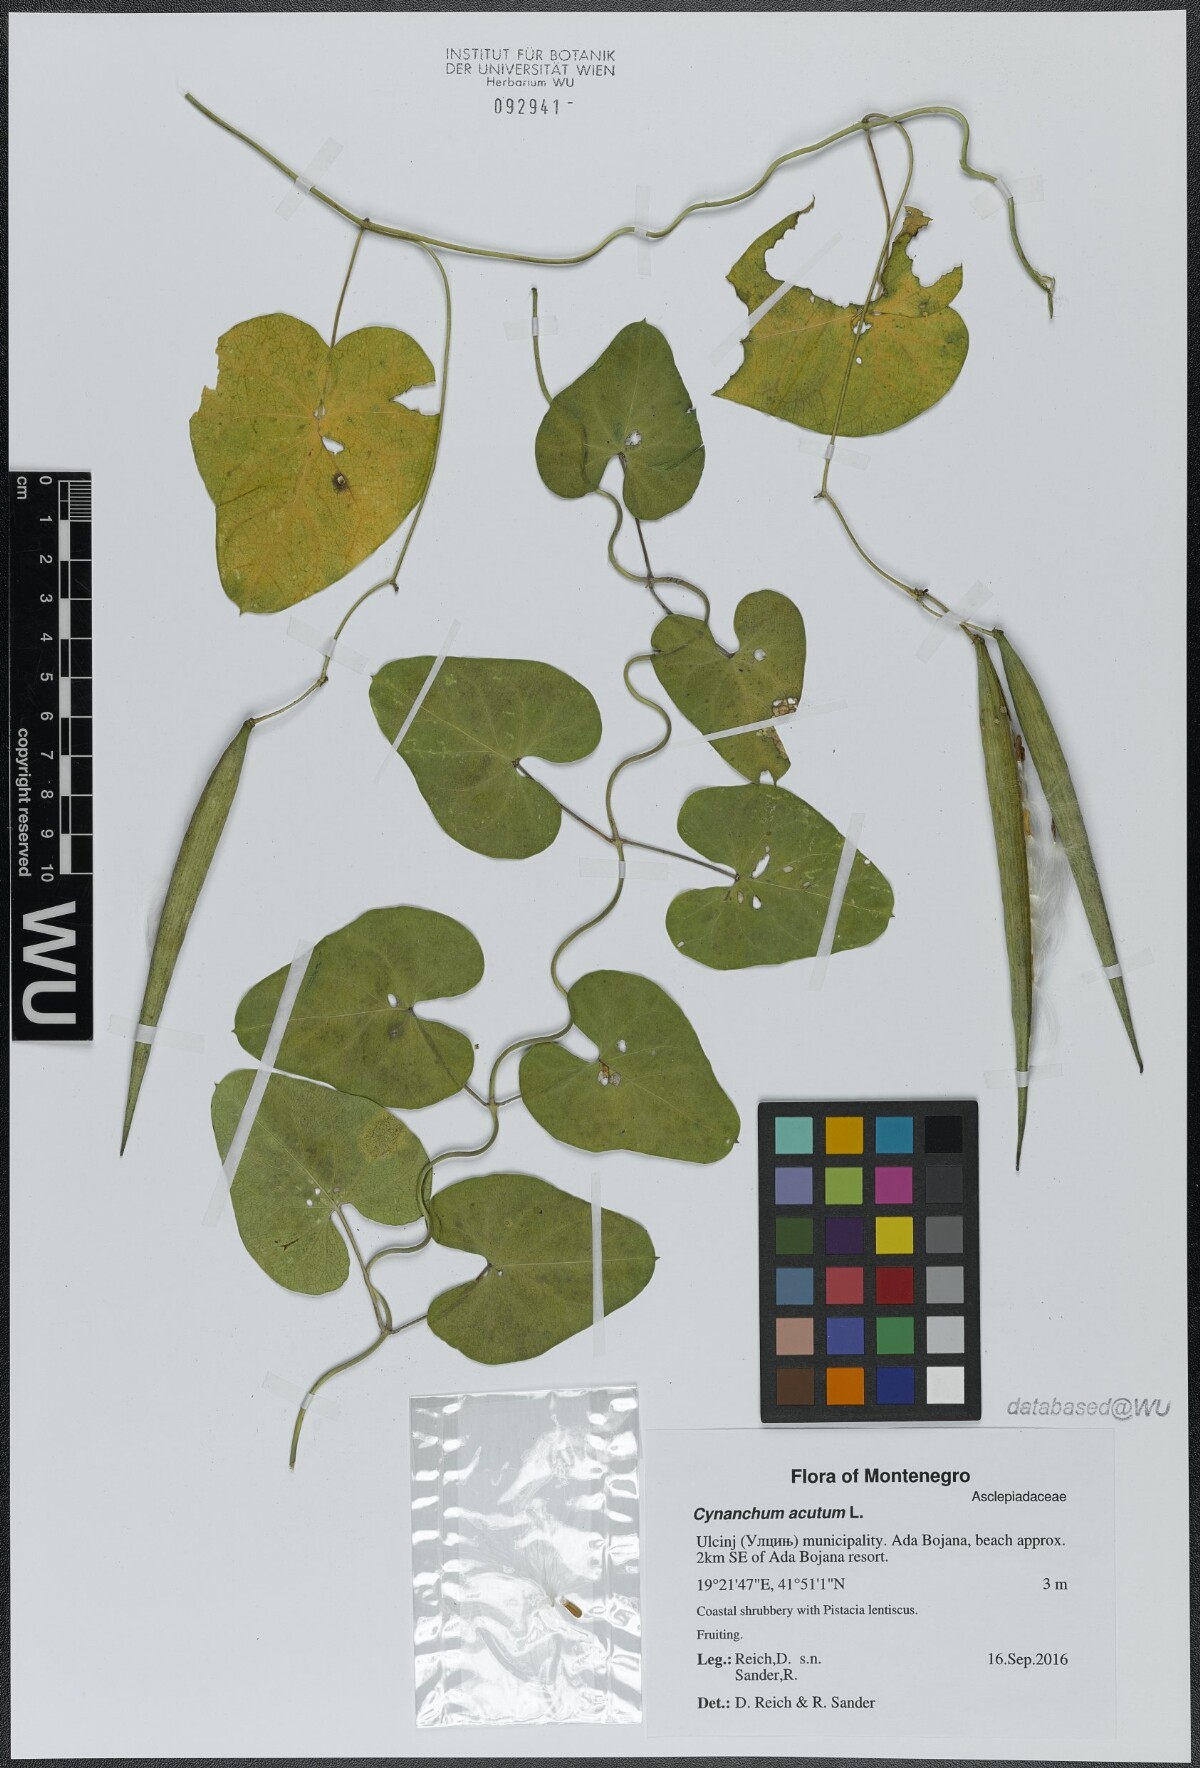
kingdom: Plantae
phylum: Tracheophyta
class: Magnoliopsida
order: Gentianales
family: Apocynaceae
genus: Cynanchum
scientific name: Cynanchum acutum
